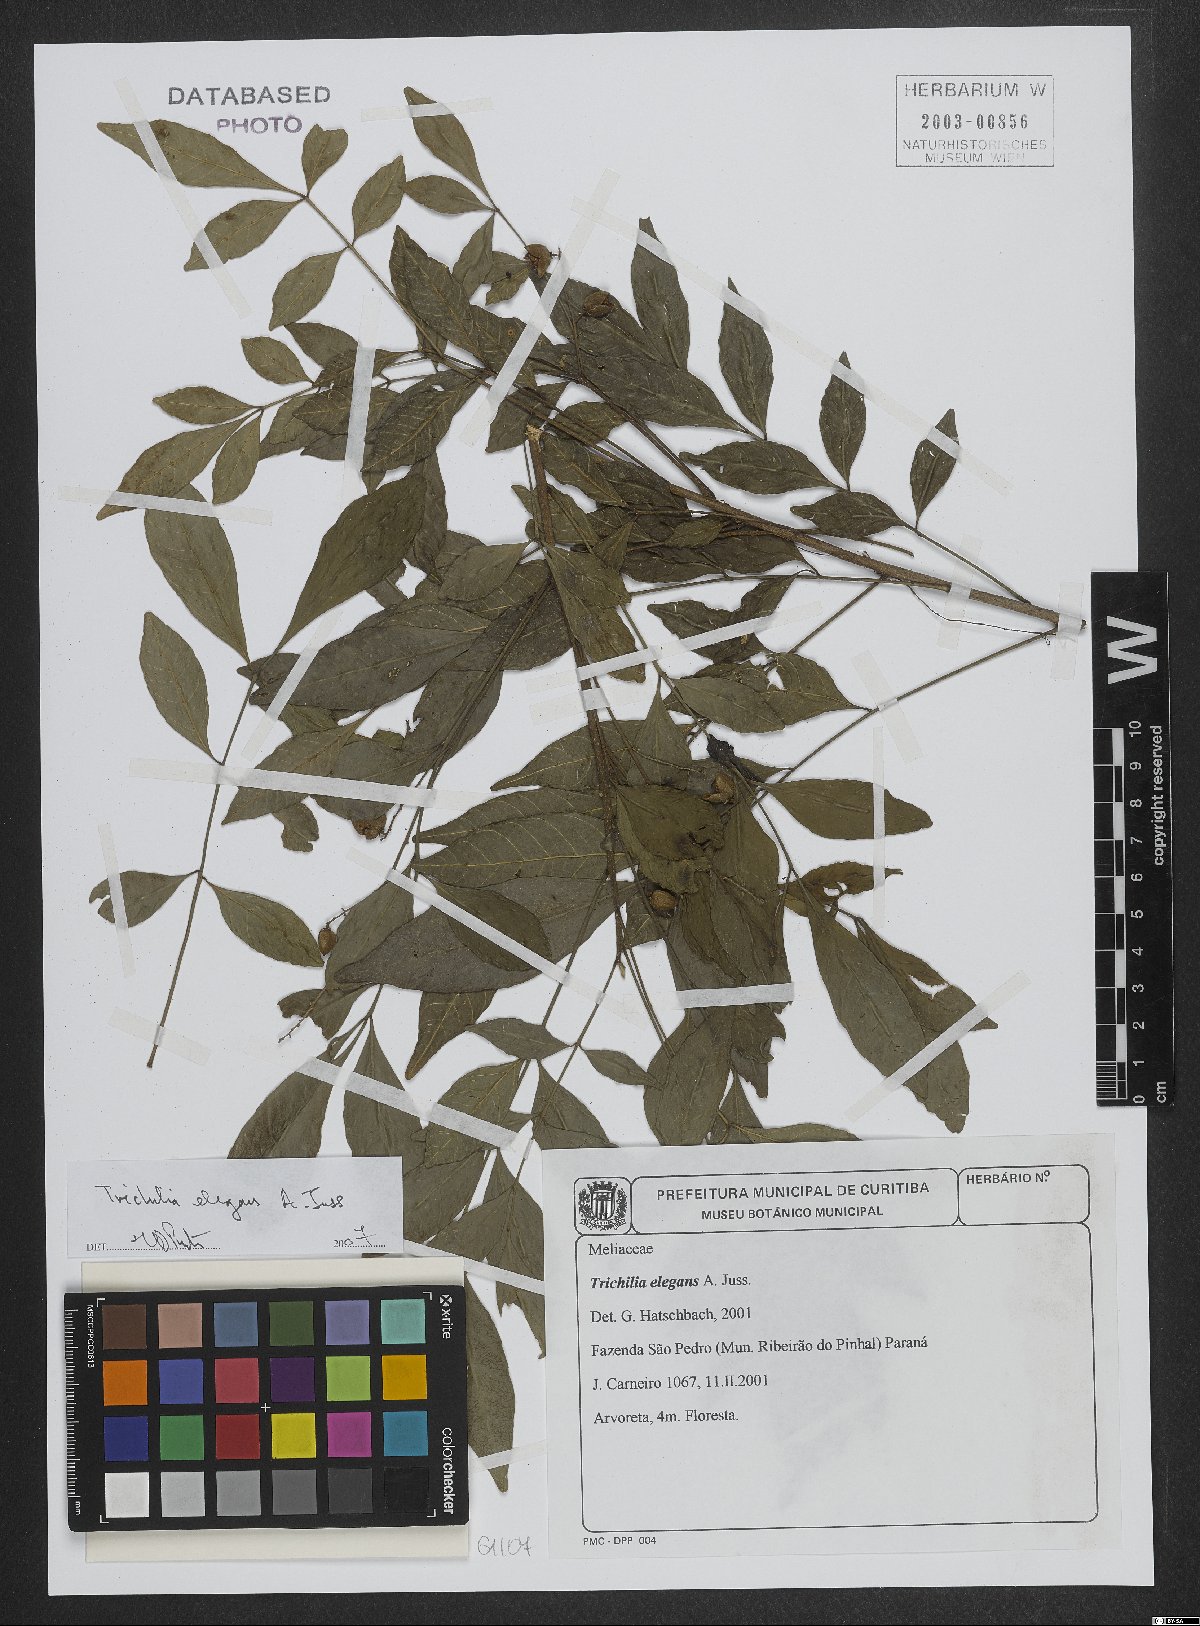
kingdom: Plantae
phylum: Tracheophyta
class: Magnoliopsida
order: Sapindales
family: Meliaceae
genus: Trichilia
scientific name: Trichilia elegans
